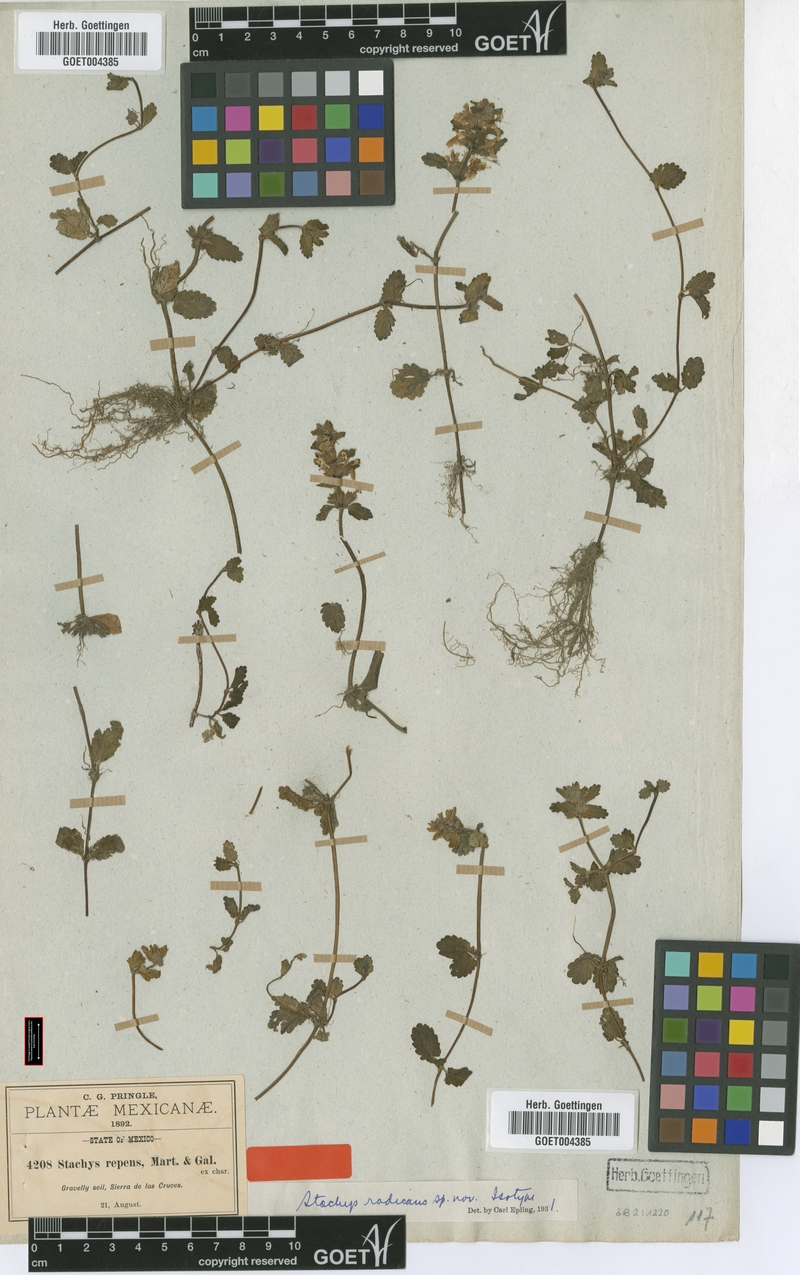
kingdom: Plantae
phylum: Tracheophyta
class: Magnoliopsida
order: Lamiales
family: Lamiaceae
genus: Stachys
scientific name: Stachys radicans
